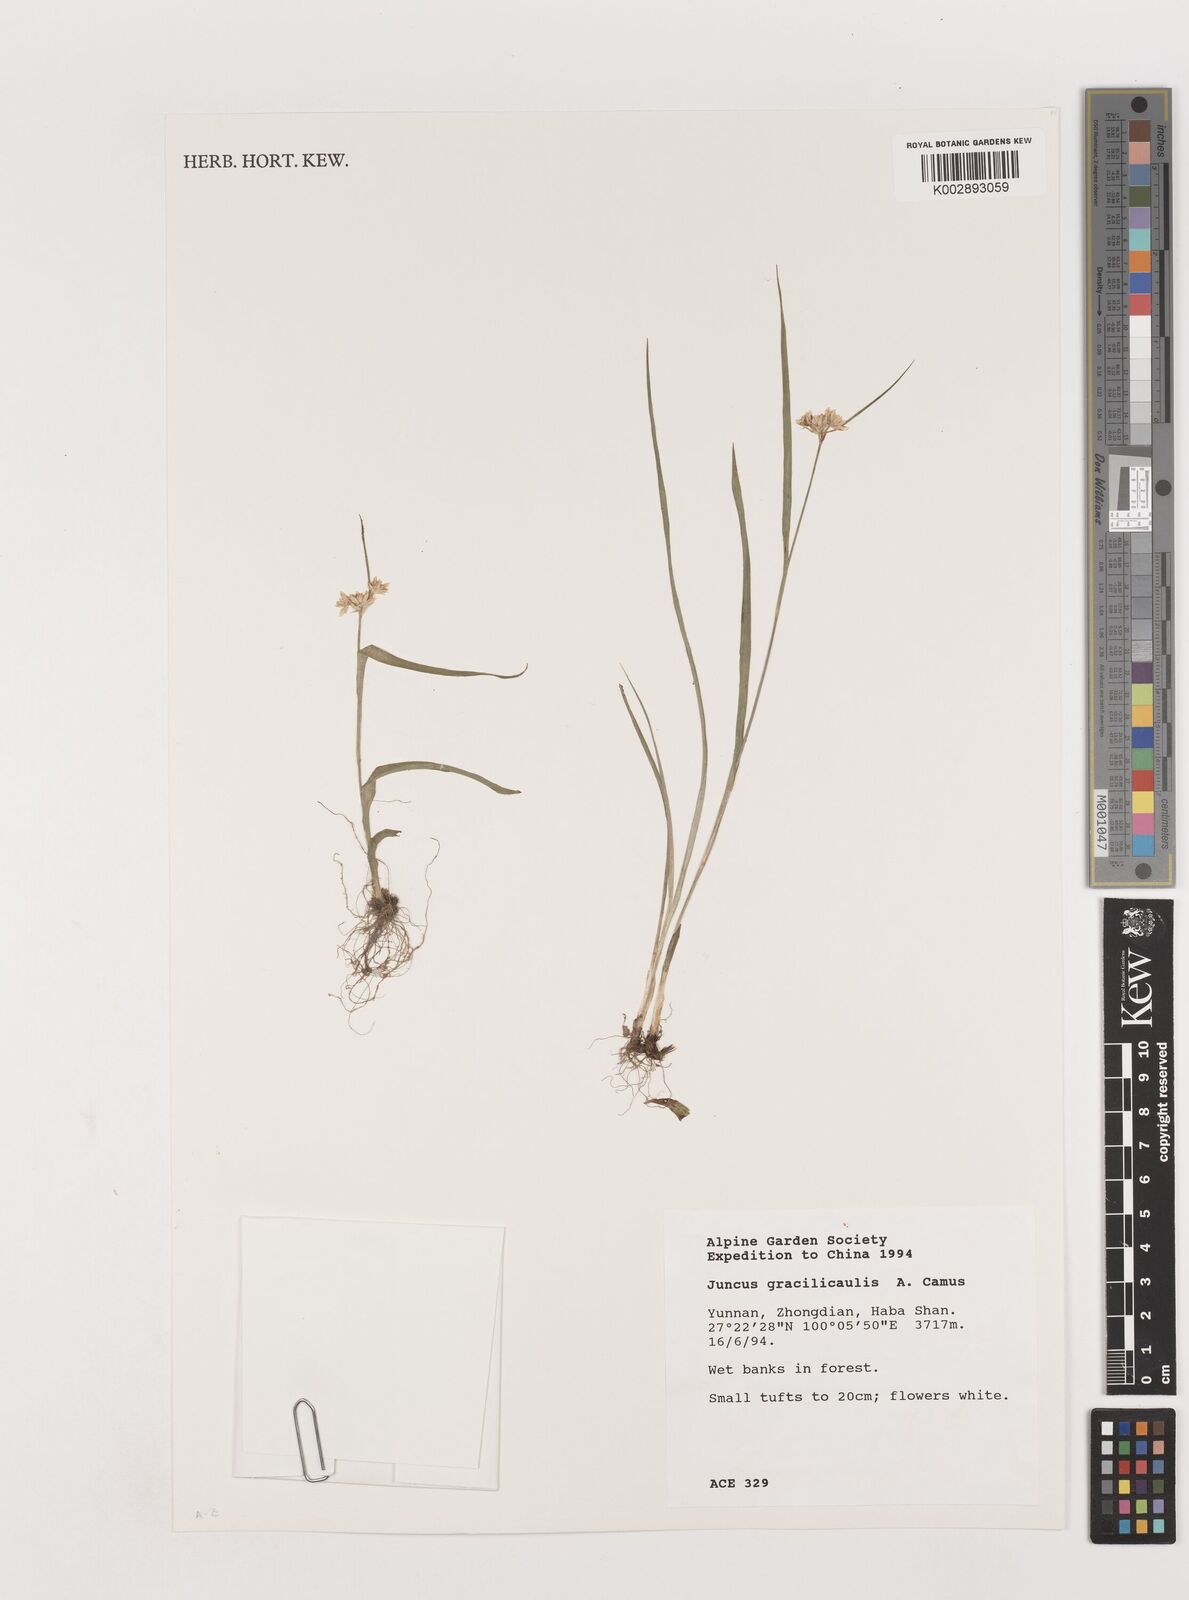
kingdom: Plantae
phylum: Tracheophyta
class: Liliopsida
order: Poales
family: Juncaceae
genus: Juncus
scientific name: Juncus gracilicaulis
